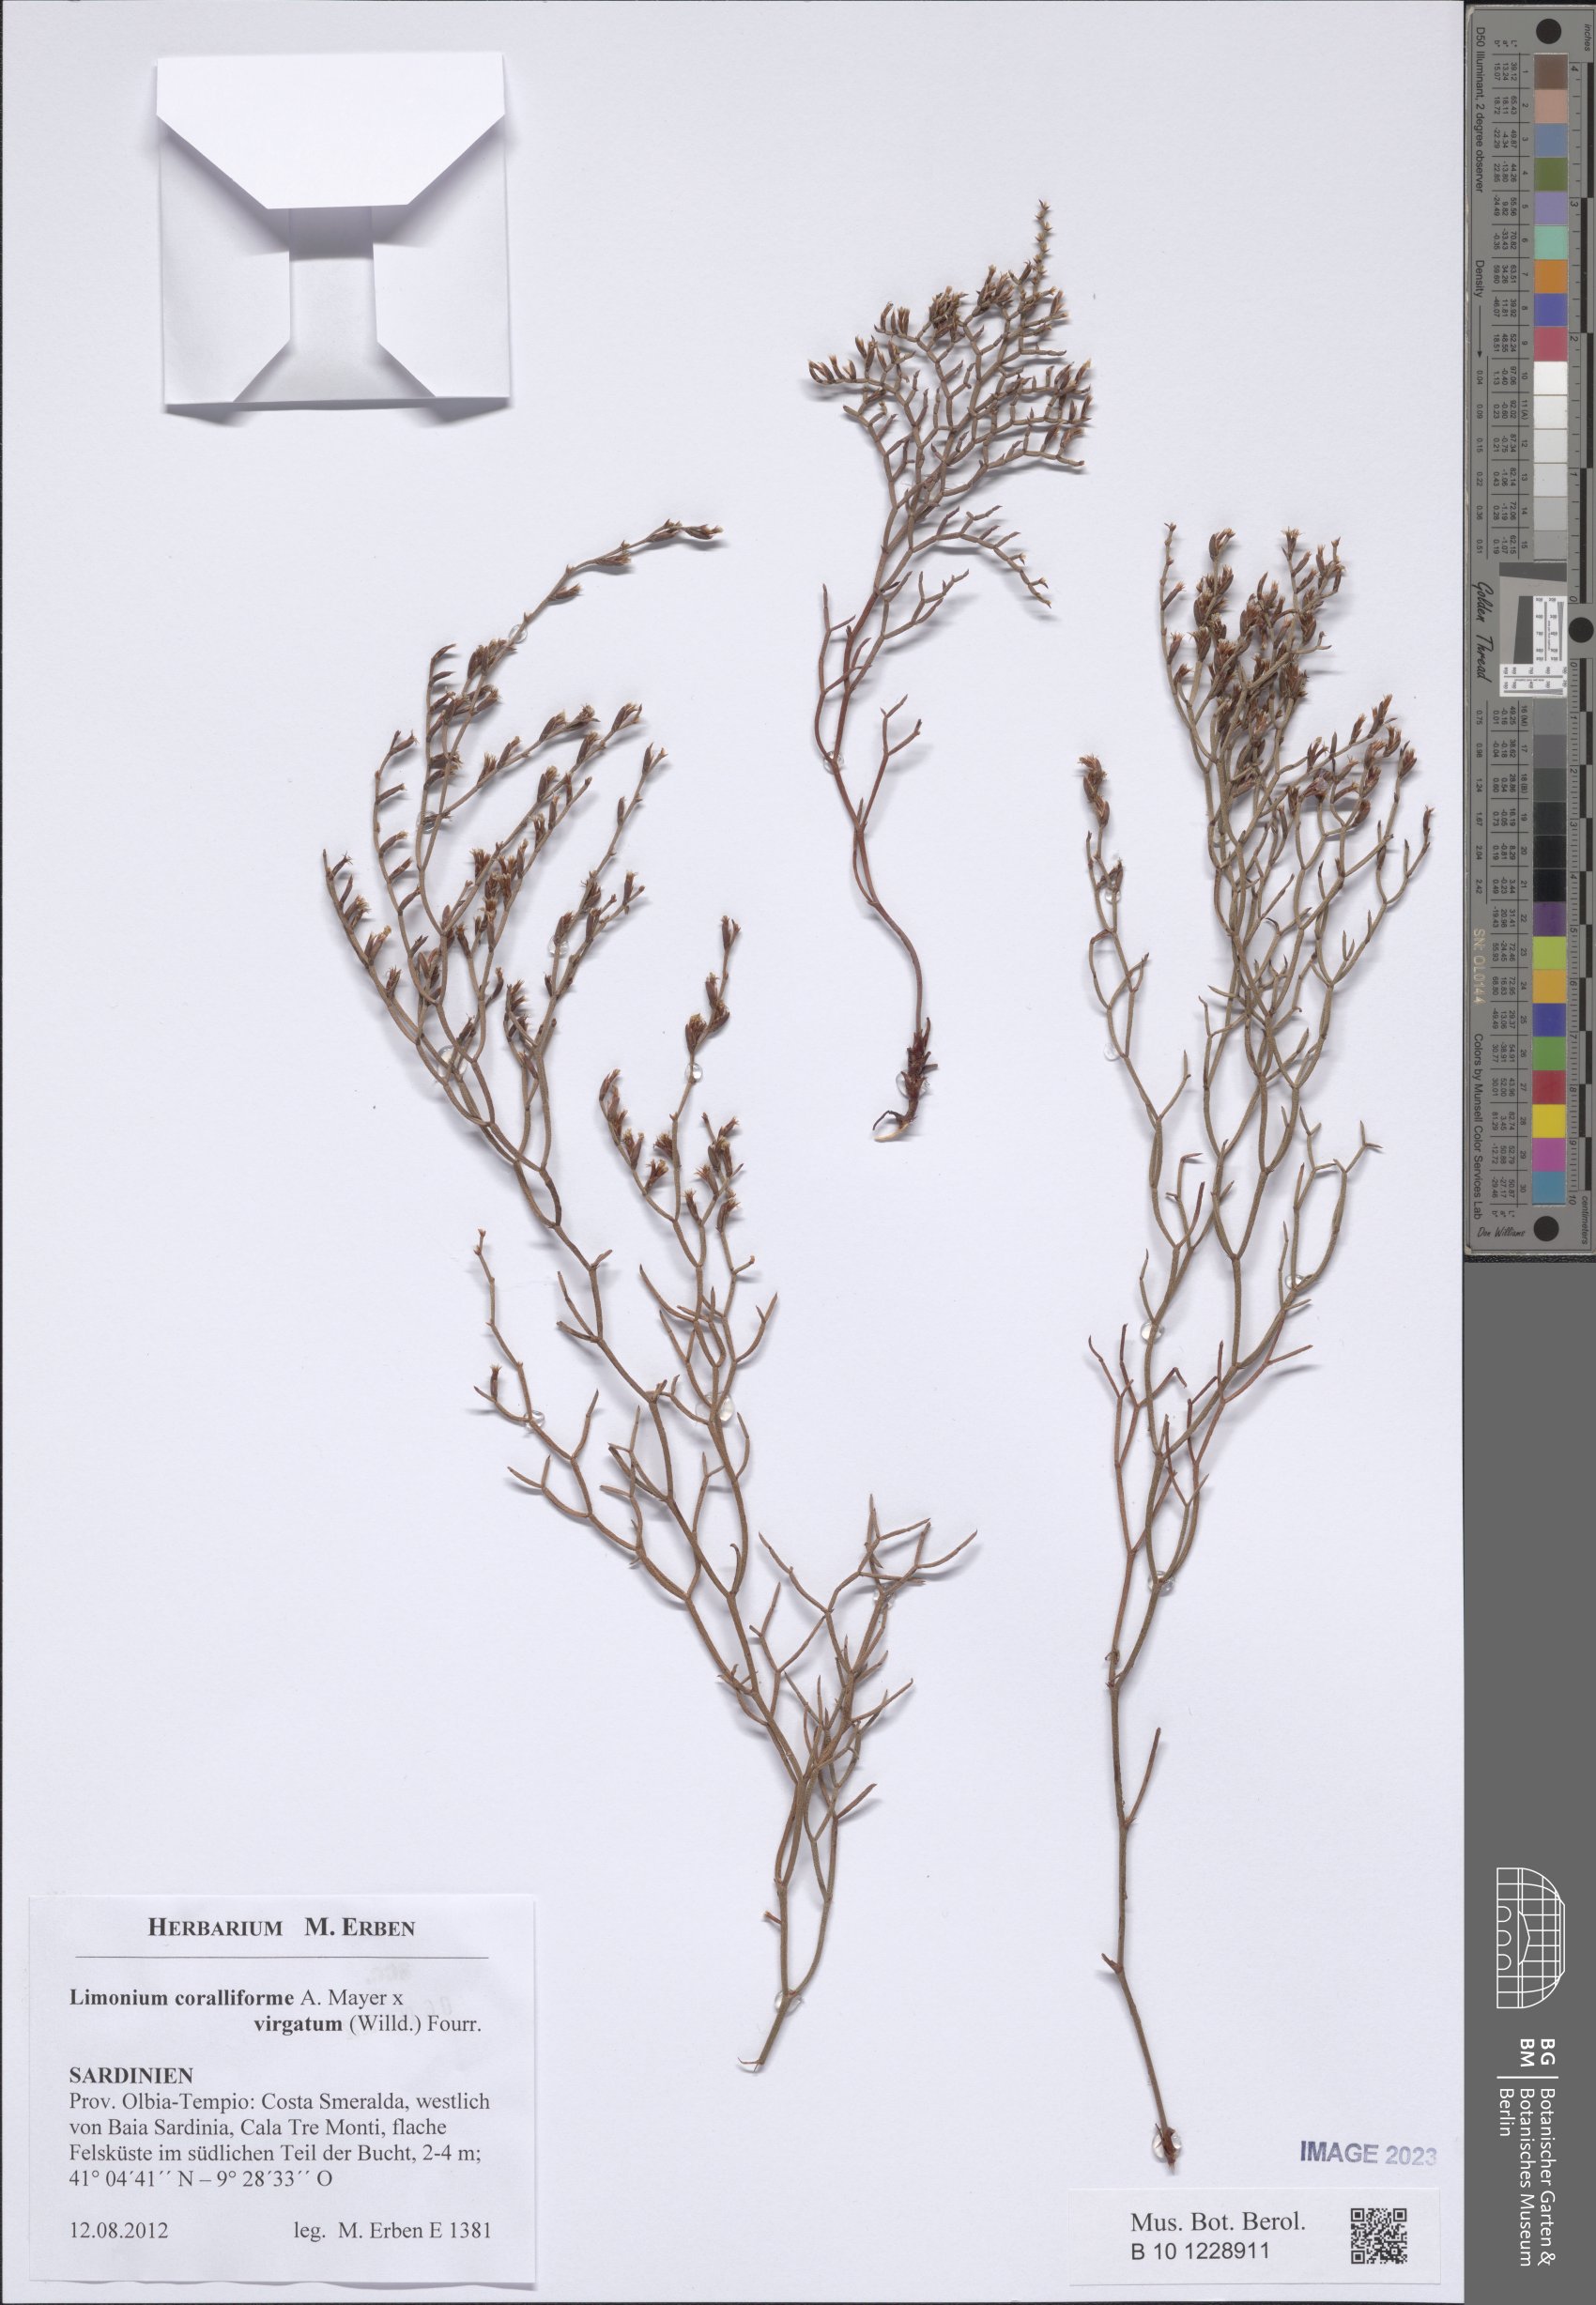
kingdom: Plantae
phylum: Tracheophyta
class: Magnoliopsida
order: Caryophyllales
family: Plumbaginaceae
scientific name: Plumbaginaceae
